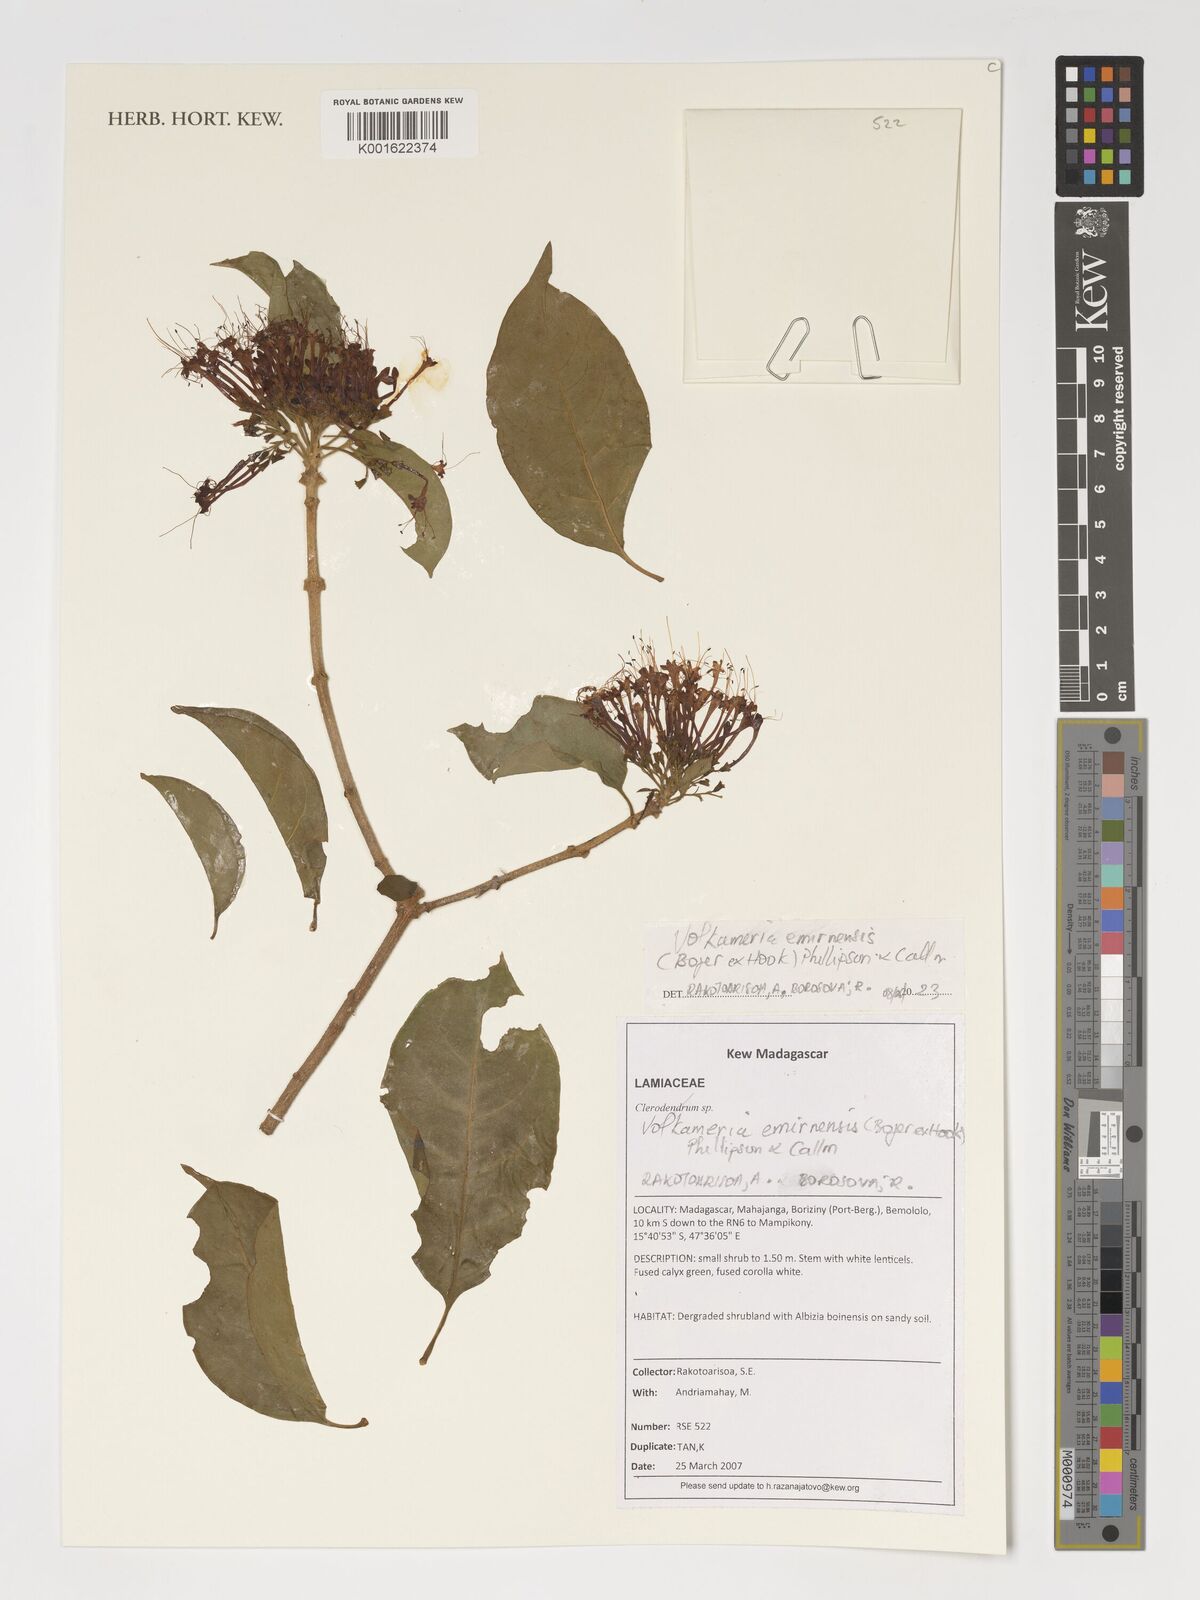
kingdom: Plantae
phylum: Tracheophyta
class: Magnoliopsida
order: Lamiales
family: Lamiaceae
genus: Volkameria
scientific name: Volkameria
